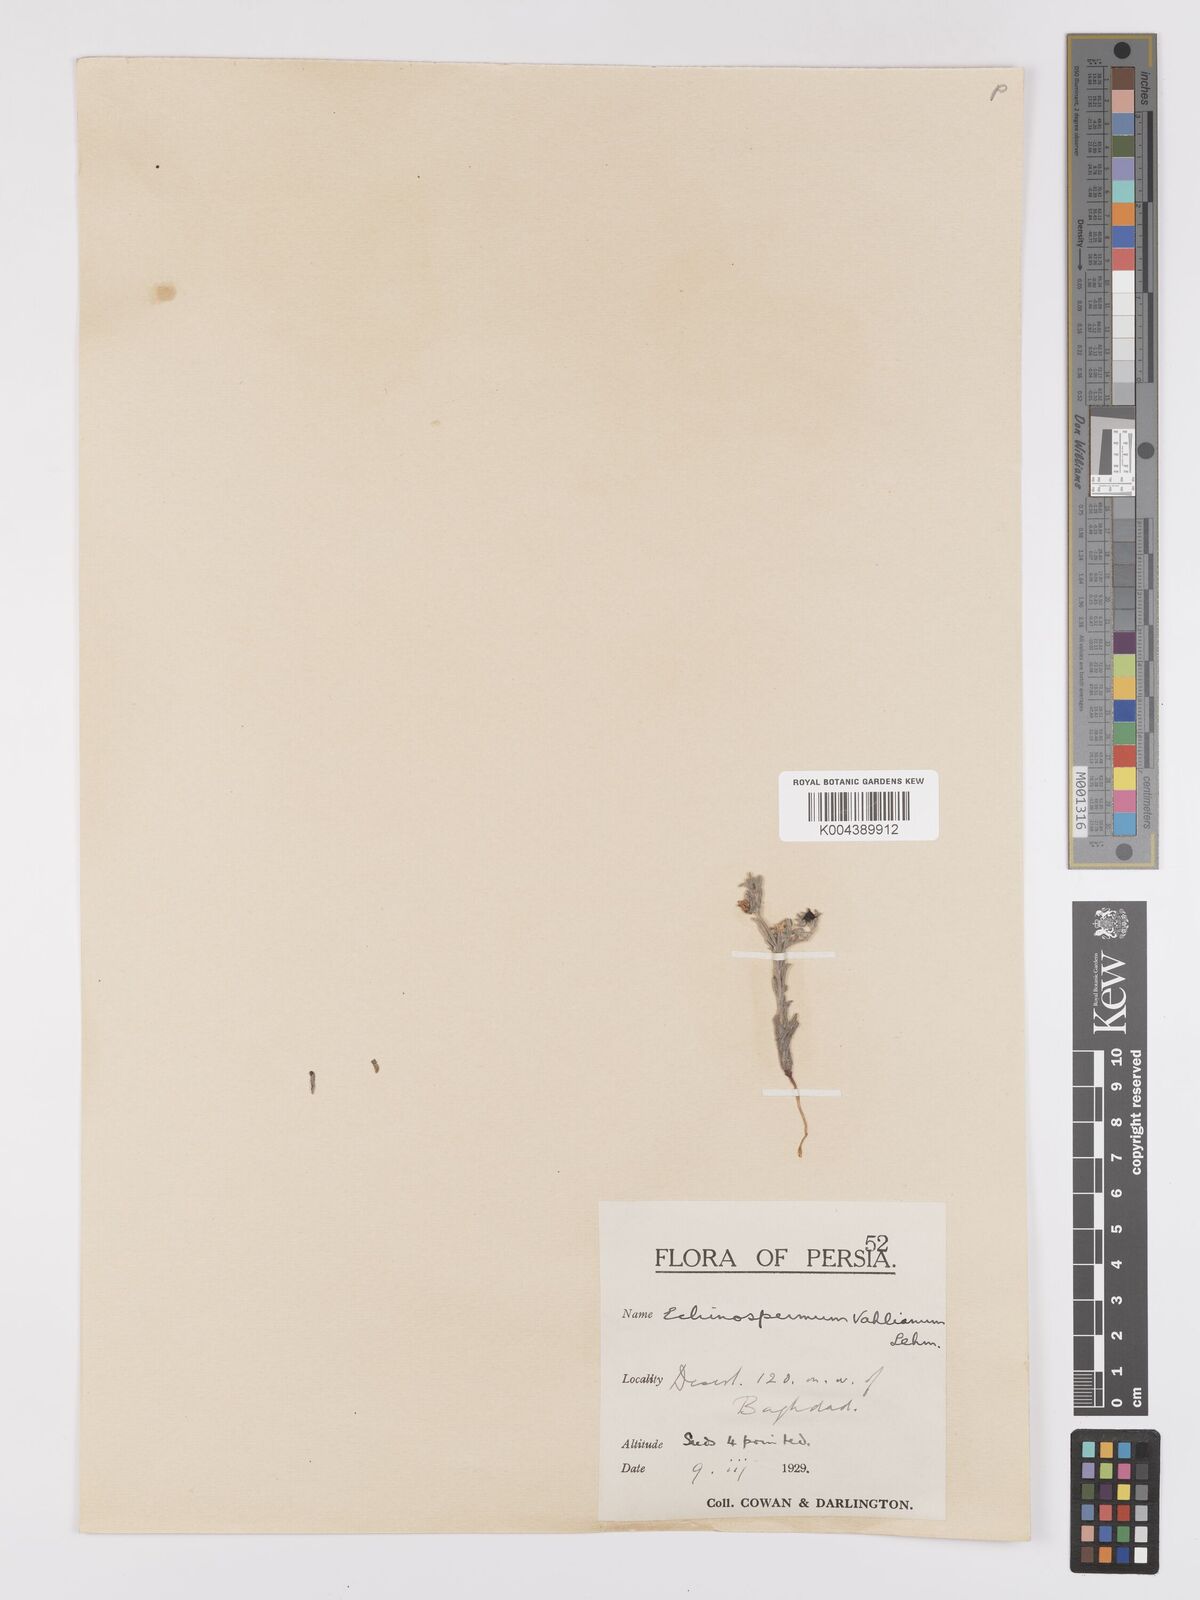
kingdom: Plantae
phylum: Tracheophyta
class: Magnoliopsida
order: Boraginales
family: Boraginaceae
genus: Lappula
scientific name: Lappula spinocarpos
